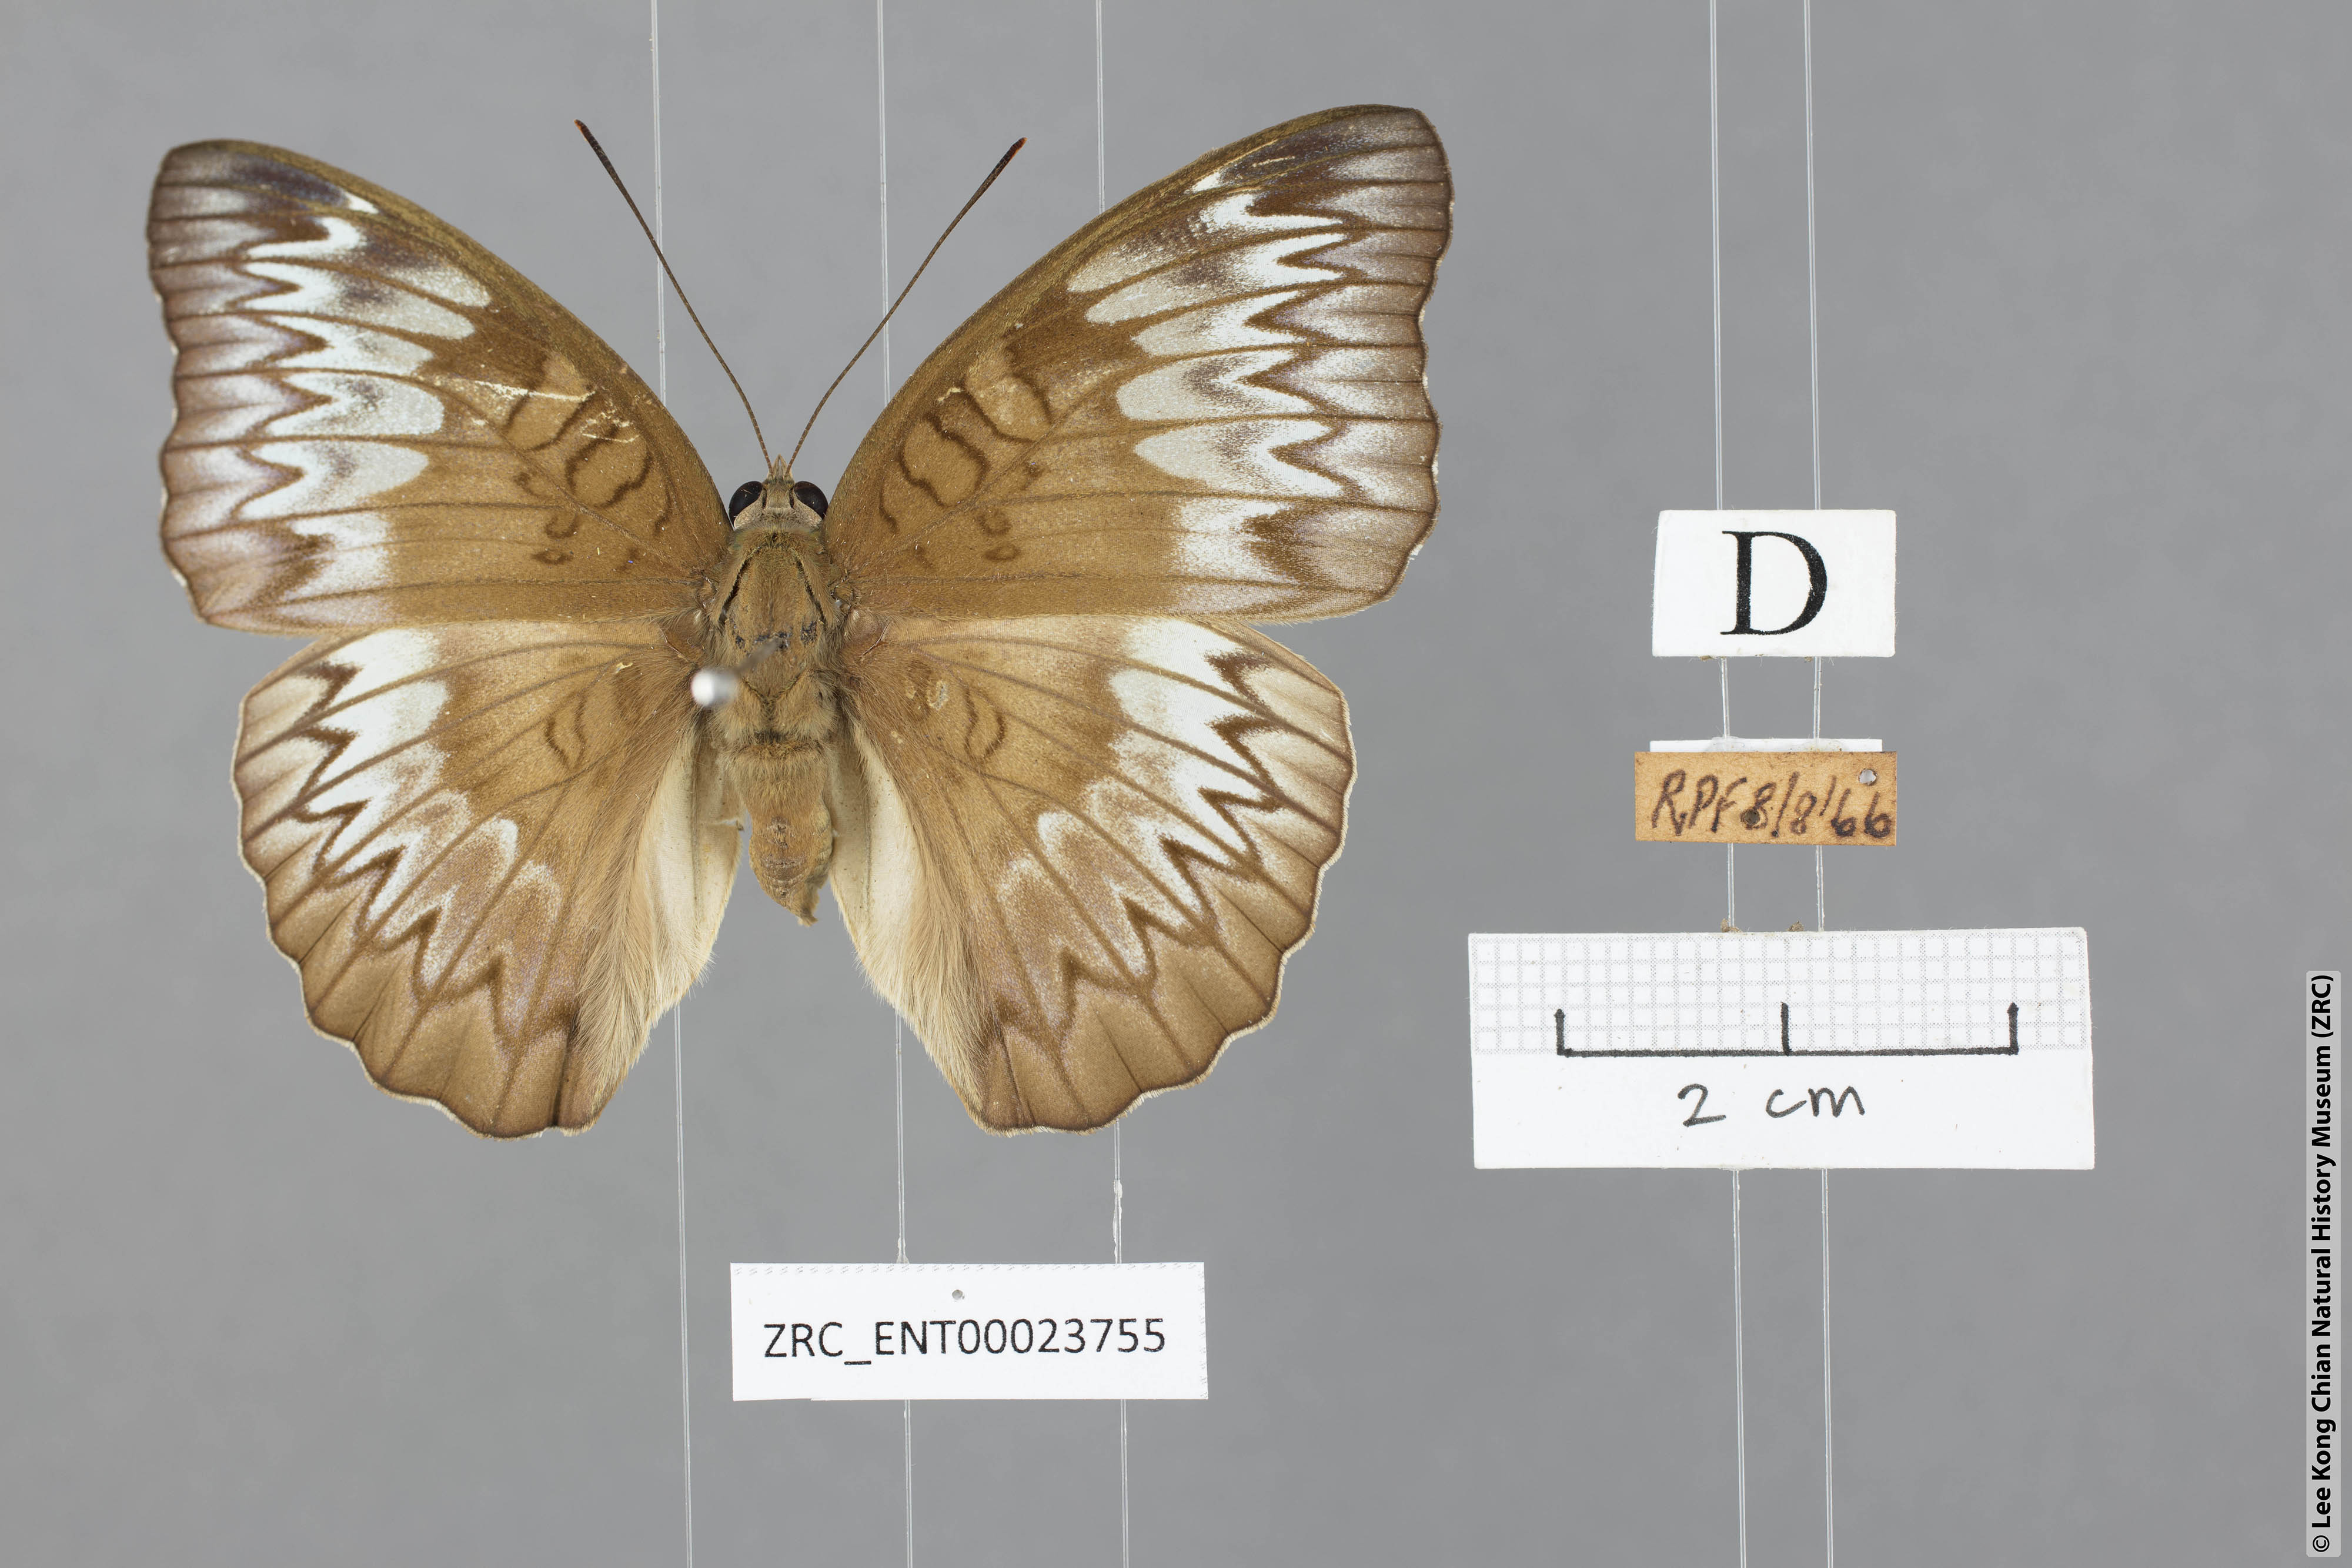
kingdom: Animalia
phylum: Arthropoda
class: Insecta
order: Lepidoptera
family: Nymphalidae
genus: Euthalia
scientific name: Euthalia monina
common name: Powdered baron
